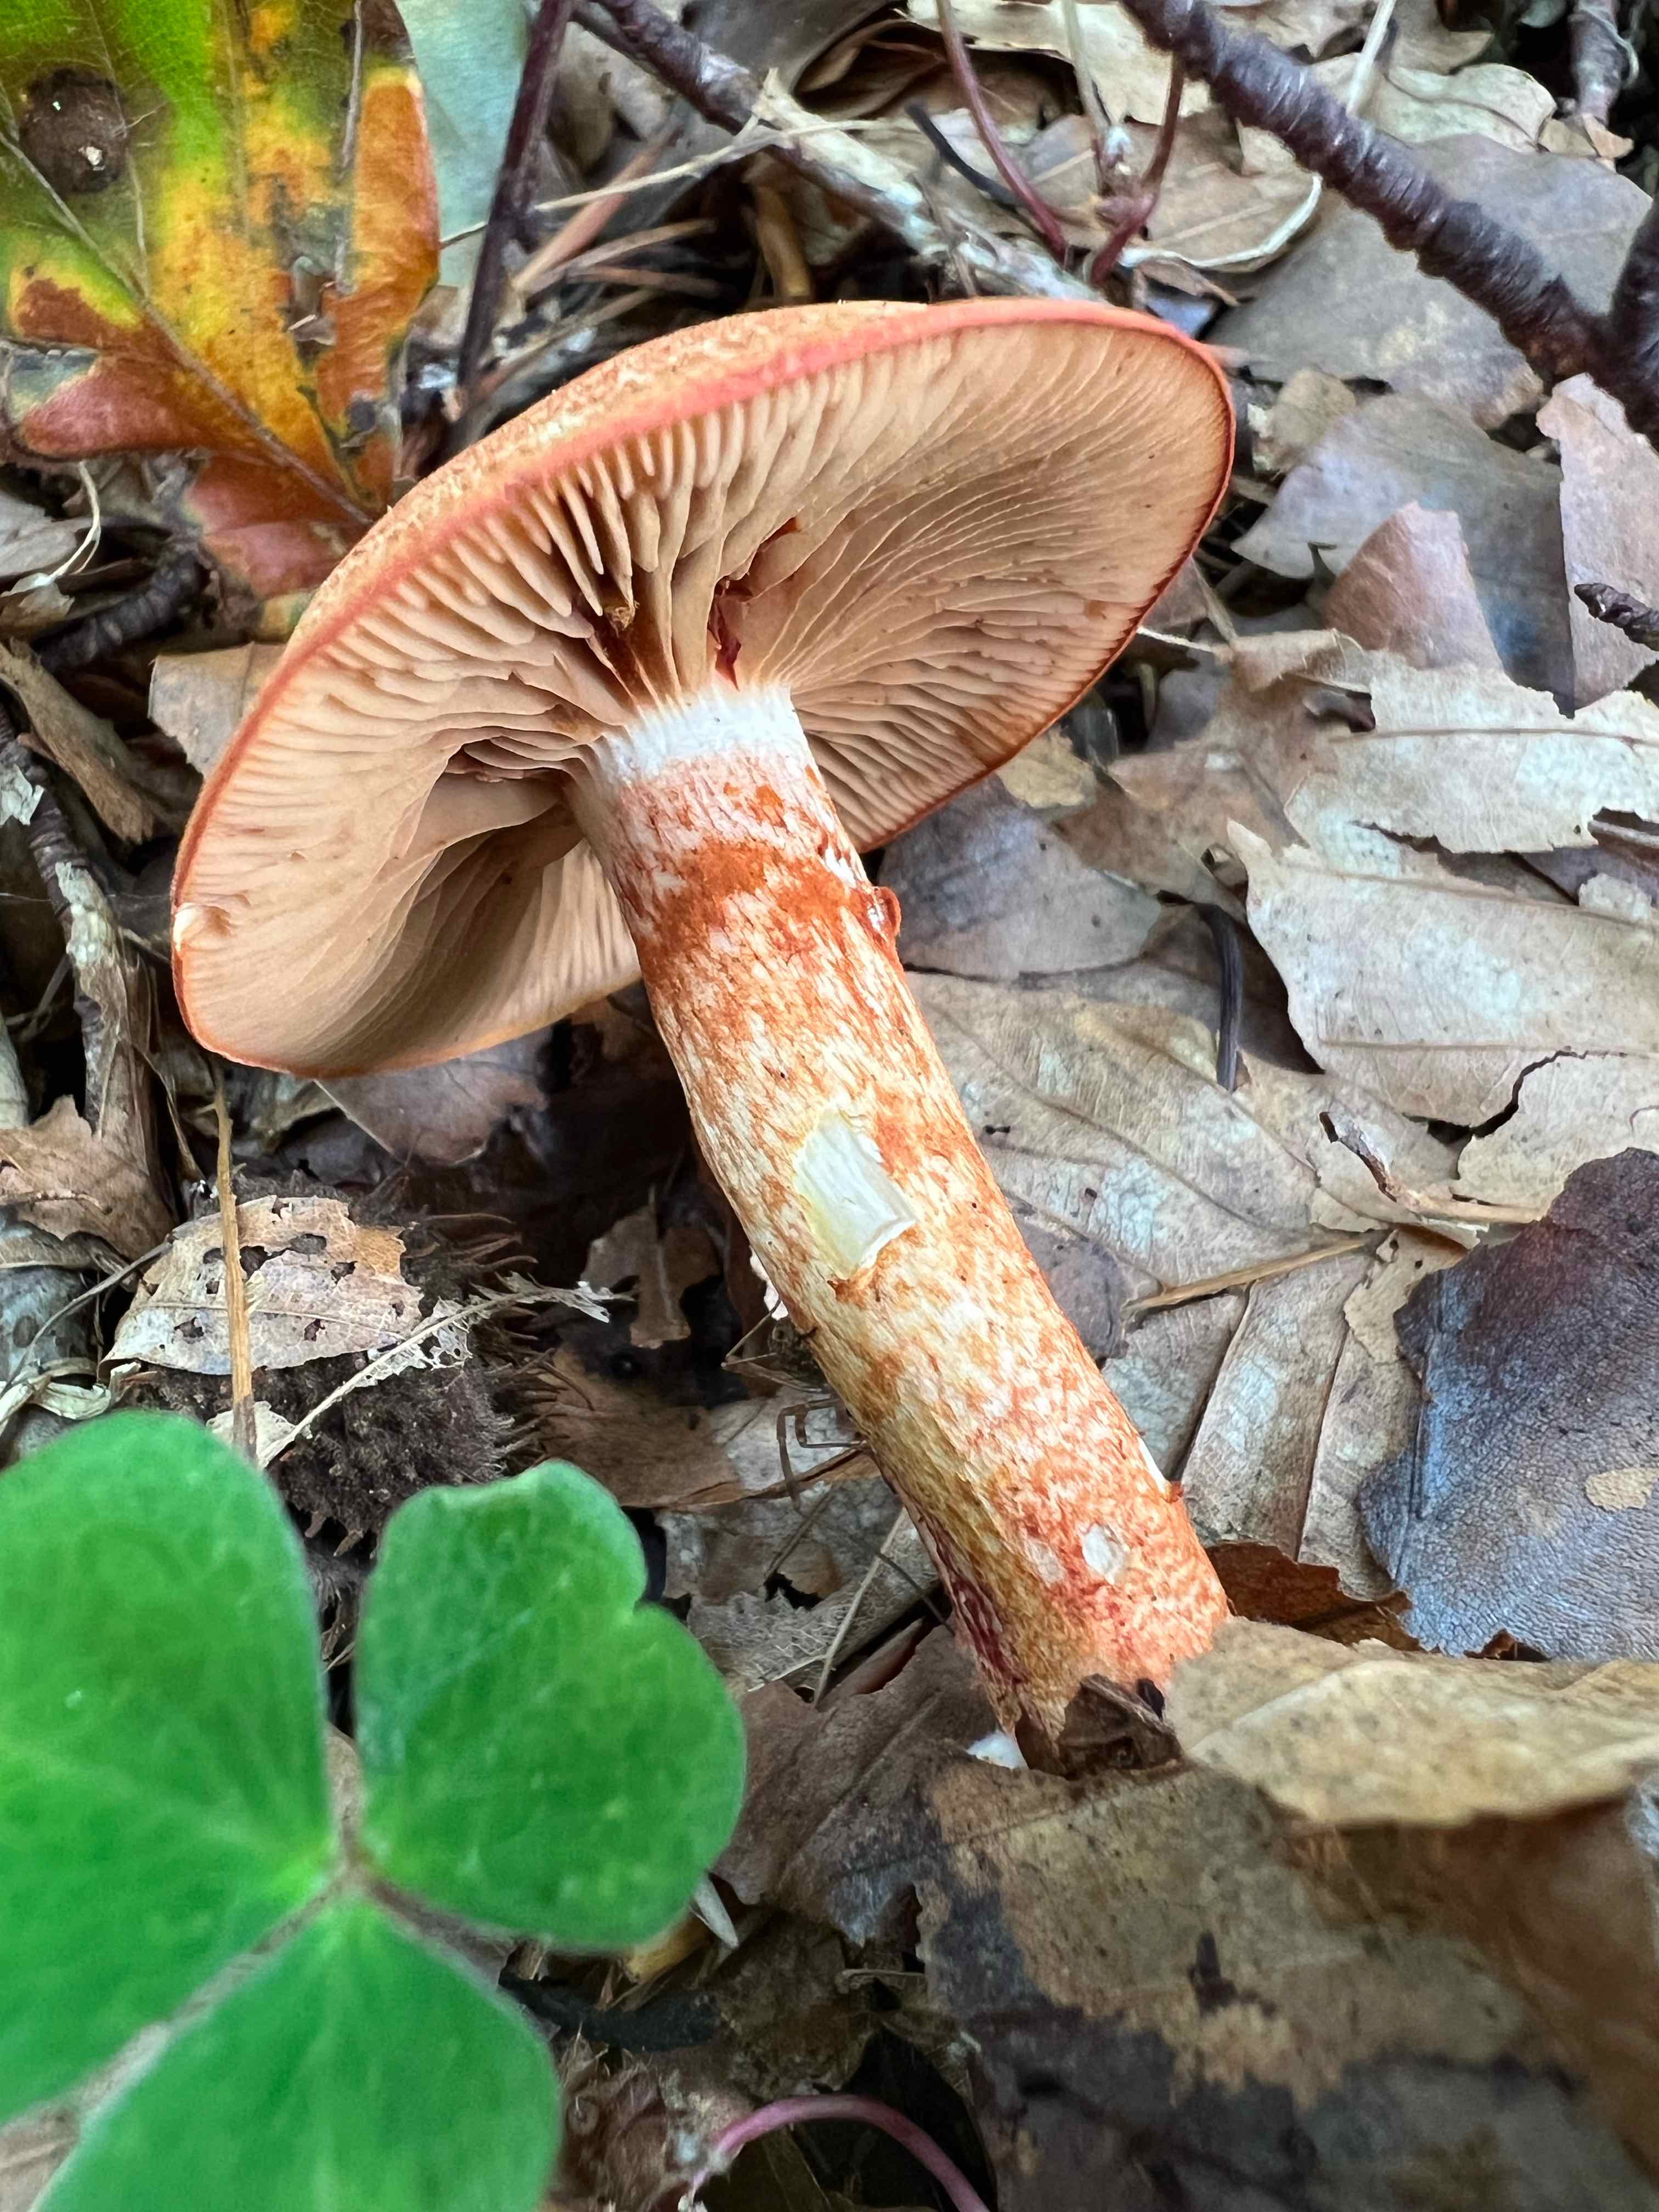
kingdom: Fungi
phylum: Basidiomycota
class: Agaricomycetes
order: Agaricales
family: Cortinariaceae
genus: Cortinarius
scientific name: Cortinarius bolaris
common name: cinnoberskællet slørhat
